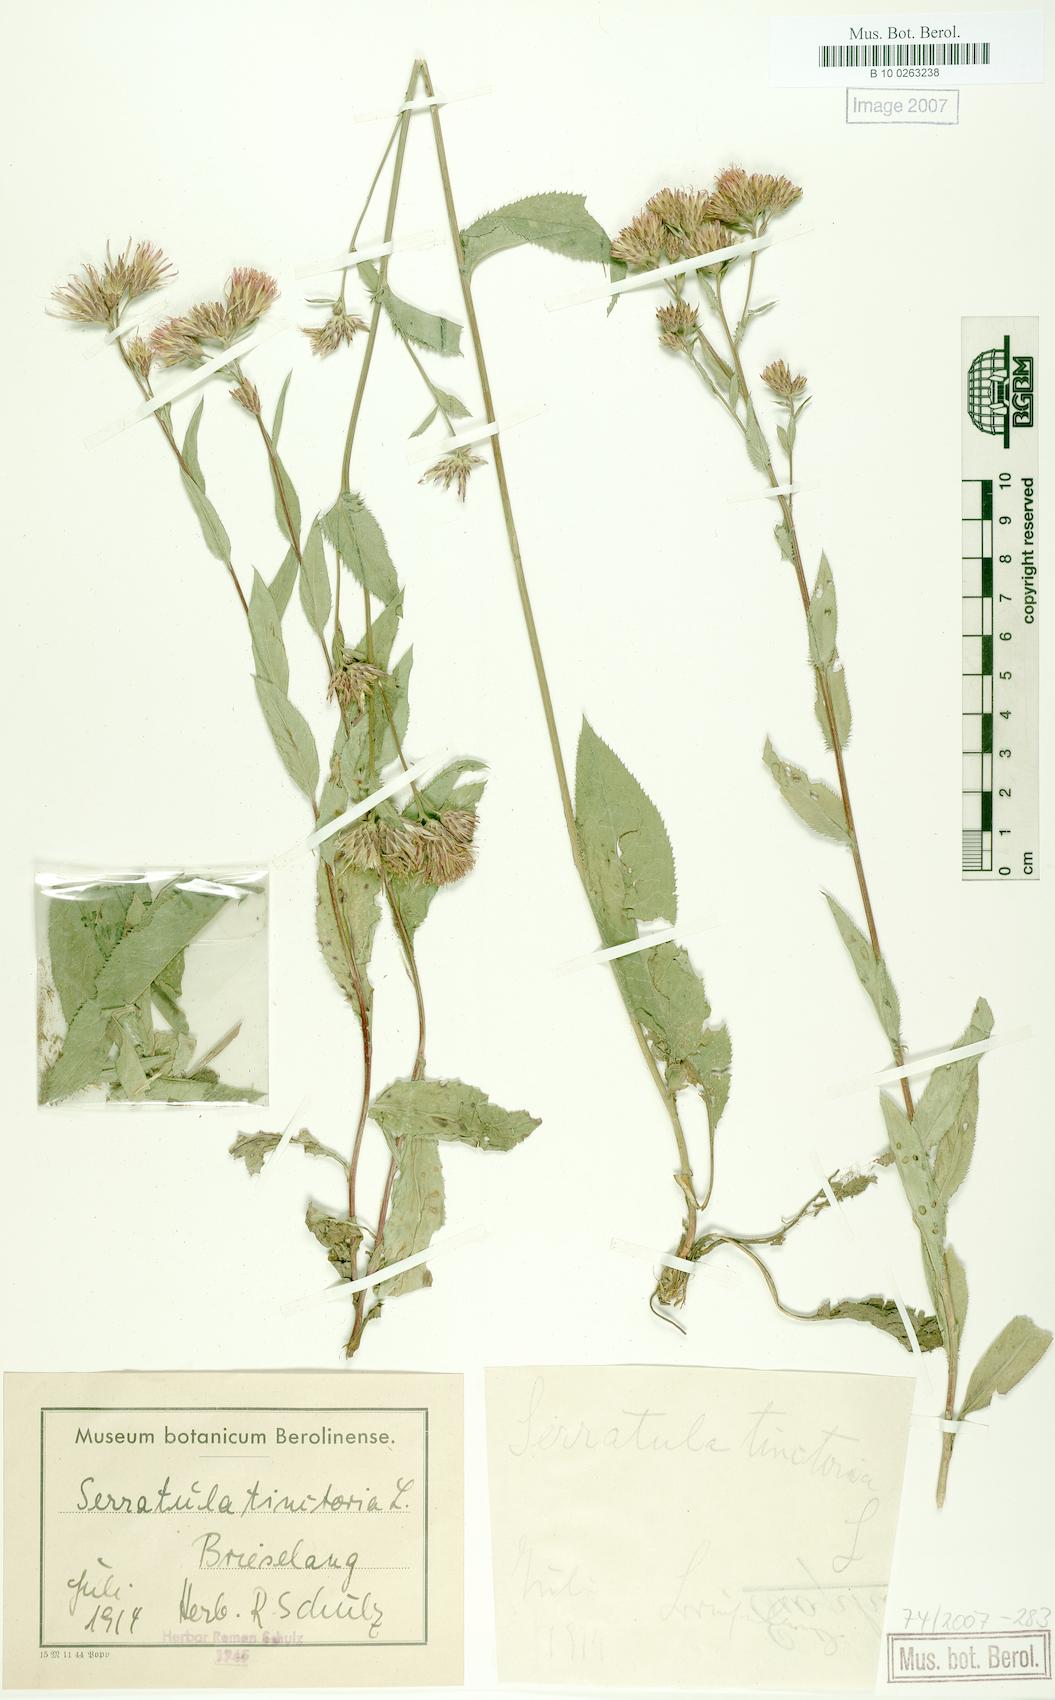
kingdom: Plantae
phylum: Tracheophyta
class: Magnoliopsida
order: Asterales
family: Asteraceae
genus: Serratula
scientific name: Serratula tinctoria
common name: Saw-wort
